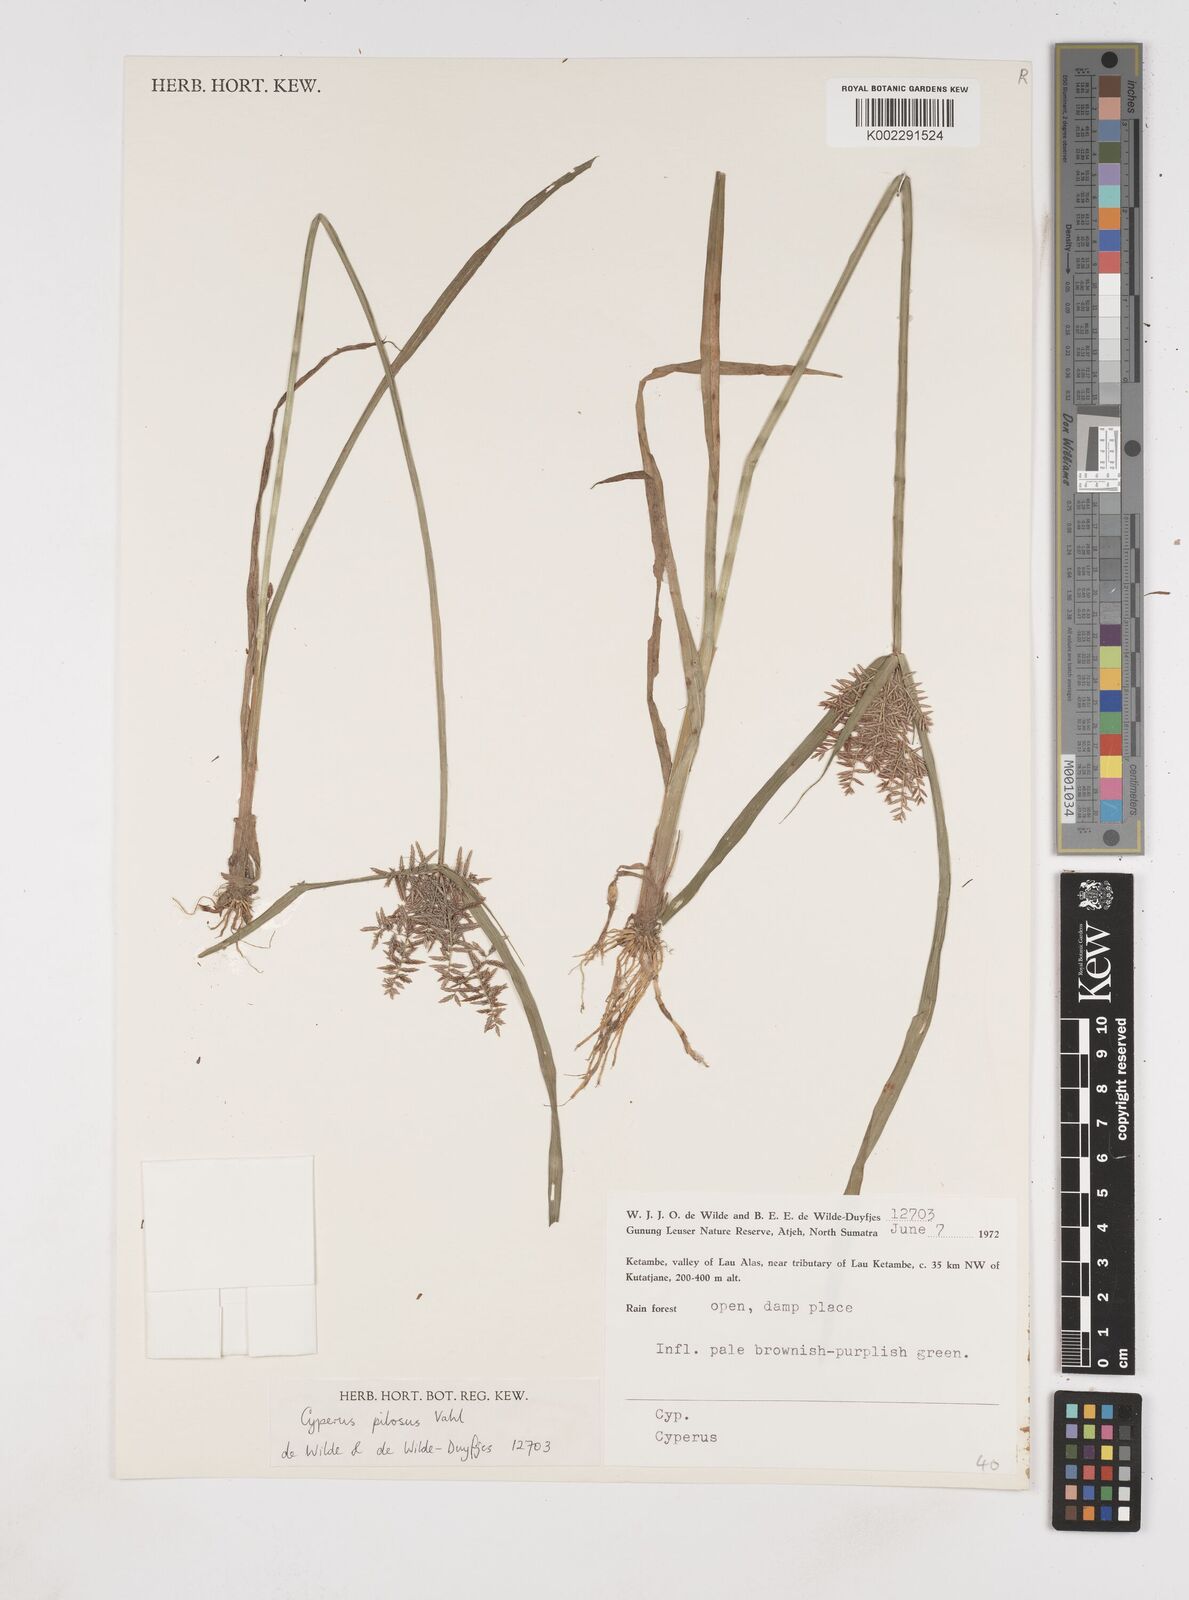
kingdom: Plantae
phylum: Tracheophyta
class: Liliopsida
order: Poales
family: Cyperaceae
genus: Cyperus
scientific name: Cyperus pilosus
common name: Fuzzy flatsedge
